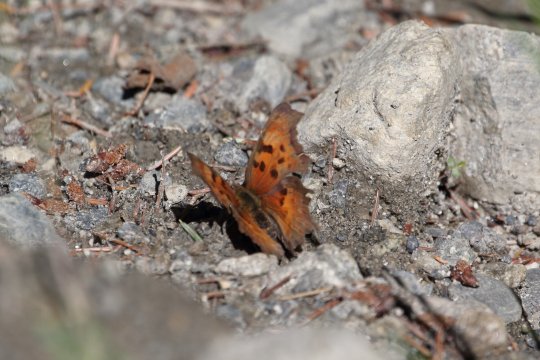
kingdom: Animalia
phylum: Arthropoda
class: Insecta
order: Lepidoptera
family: Nymphalidae
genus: Polygonia
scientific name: Polygonia gracilis
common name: Hoary Comma
